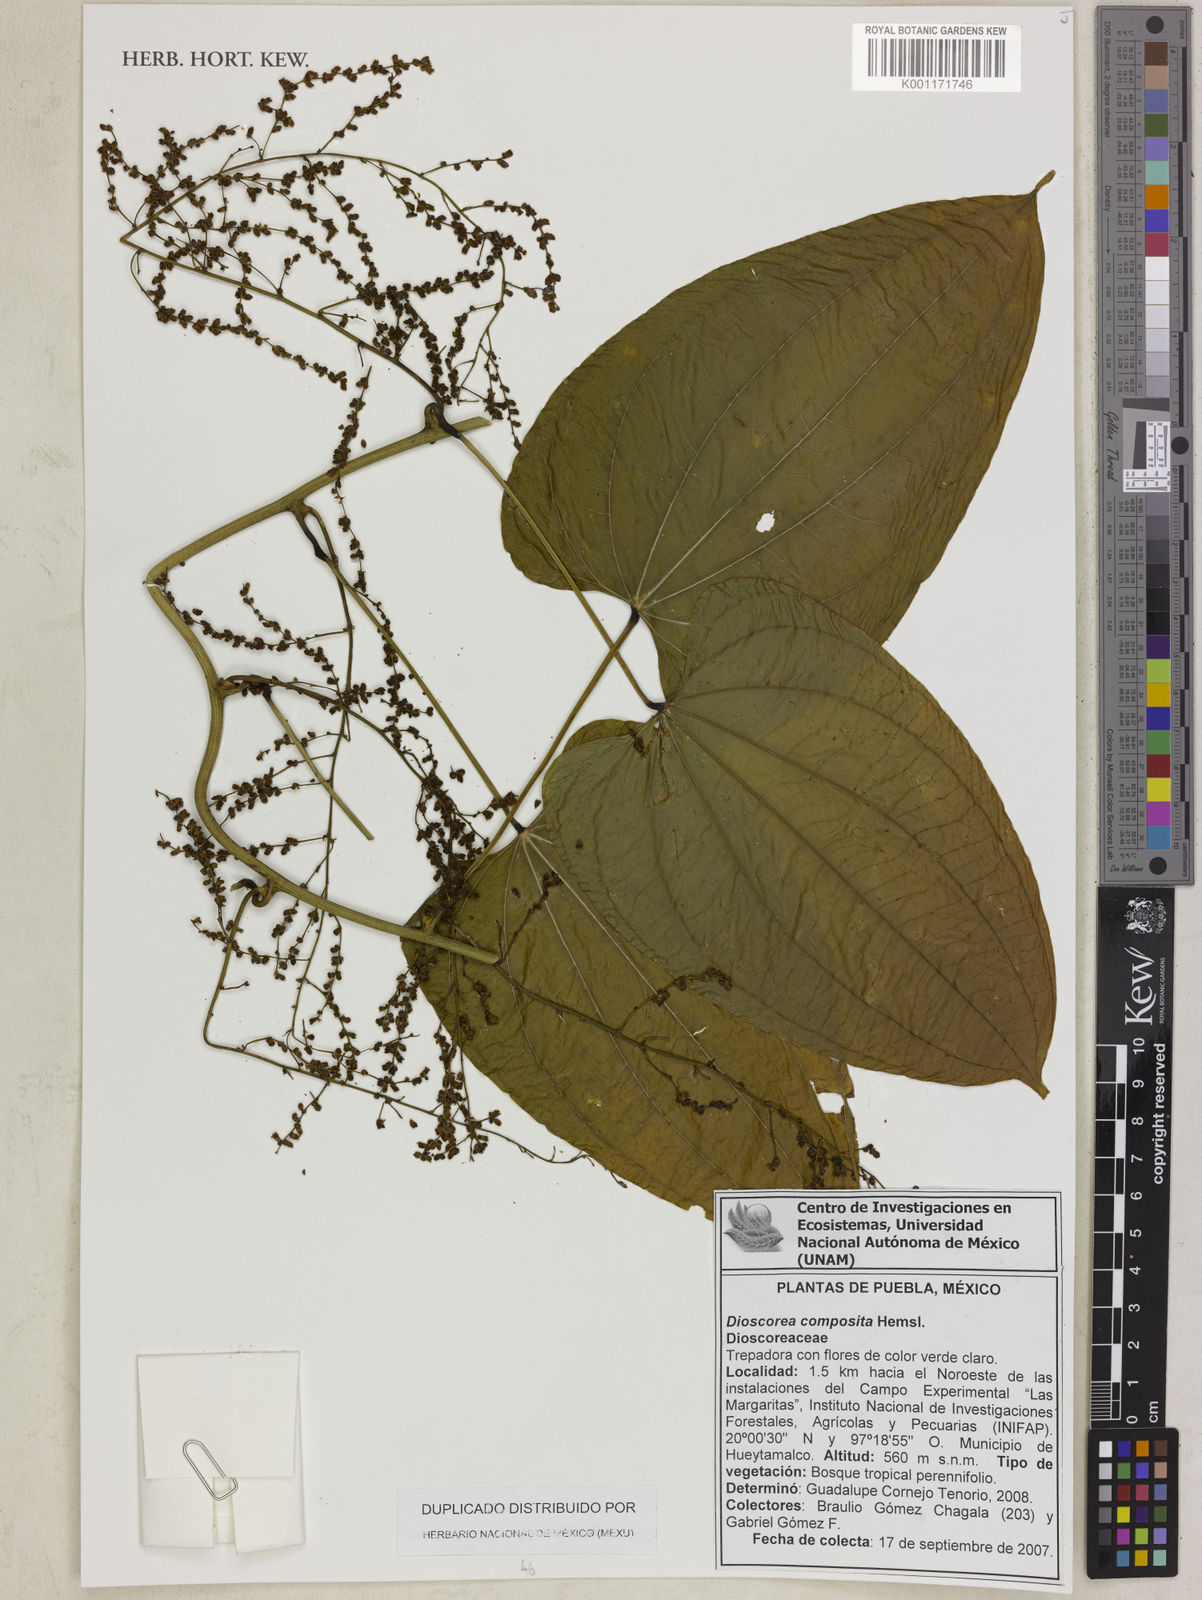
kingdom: Plantae
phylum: Tracheophyta
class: Liliopsida
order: Dioscoreales
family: Dioscoreaceae
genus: Dioscorea
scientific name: Dioscorea composita
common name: Barbasco
